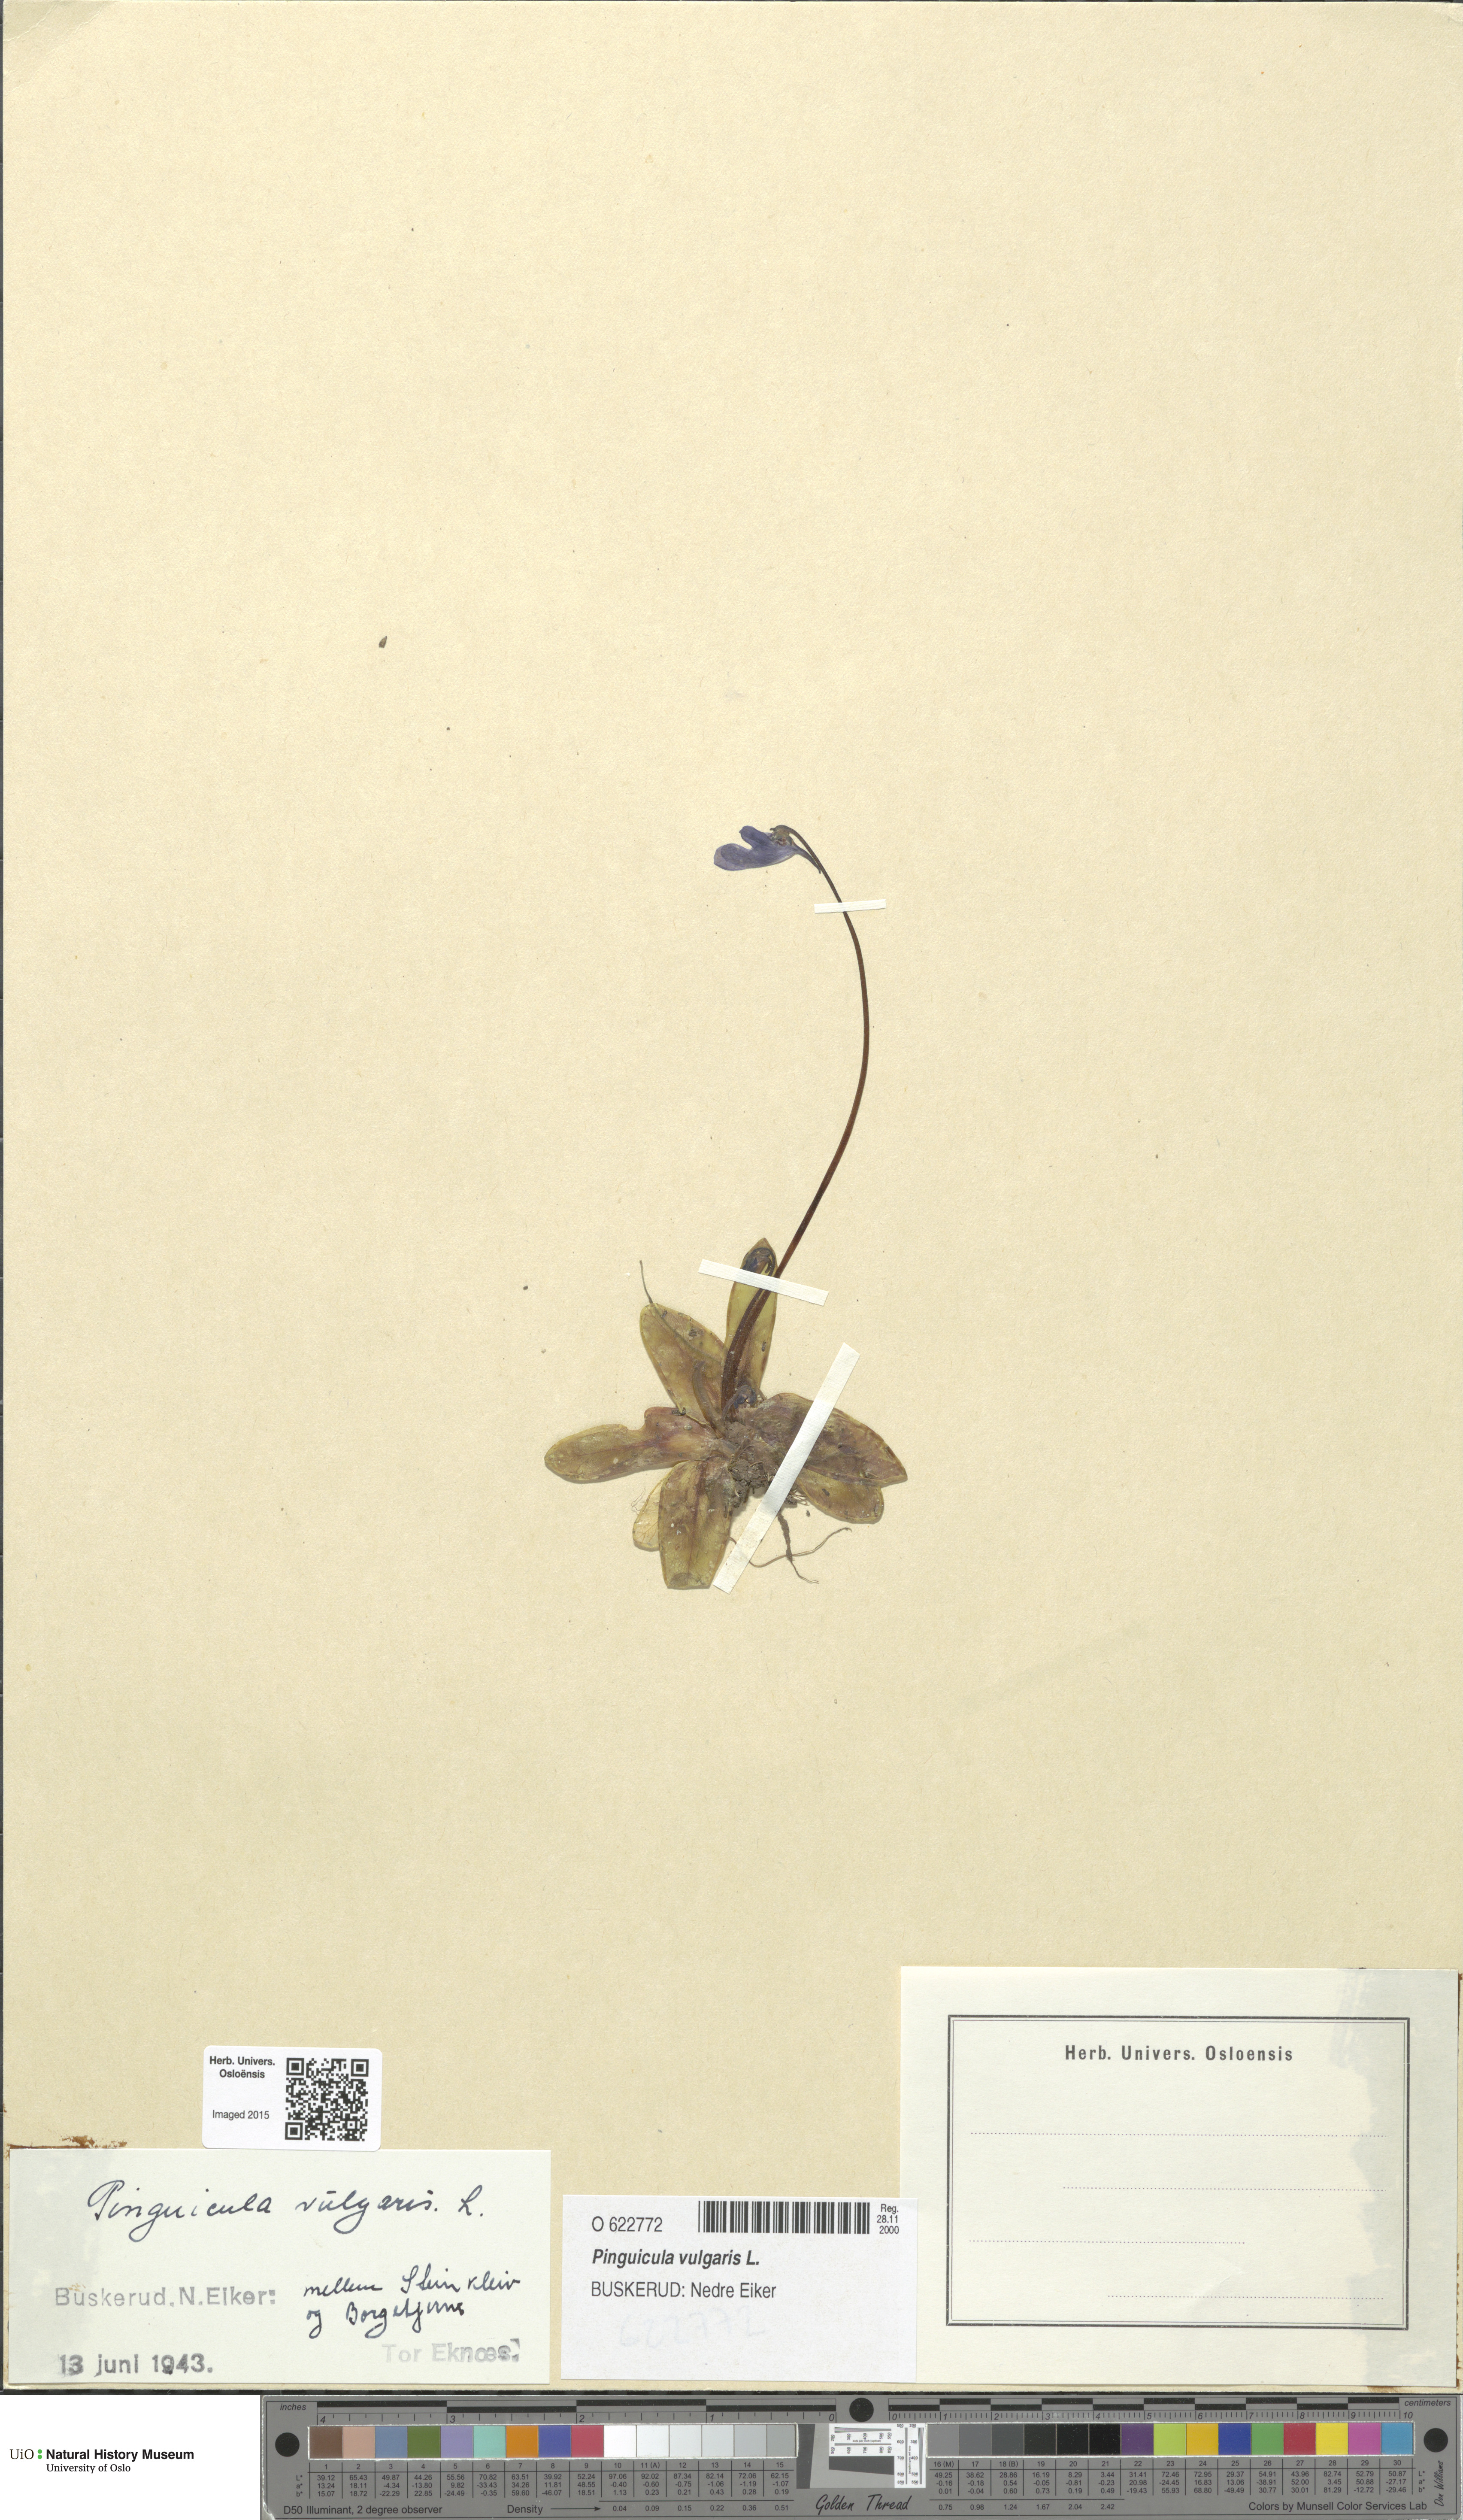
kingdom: Plantae
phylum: Tracheophyta
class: Magnoliopsida
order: Lamiales
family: Lentibulariaceae
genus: Pinguicula
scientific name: Pinguicula vulgaris
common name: Common butterwort
